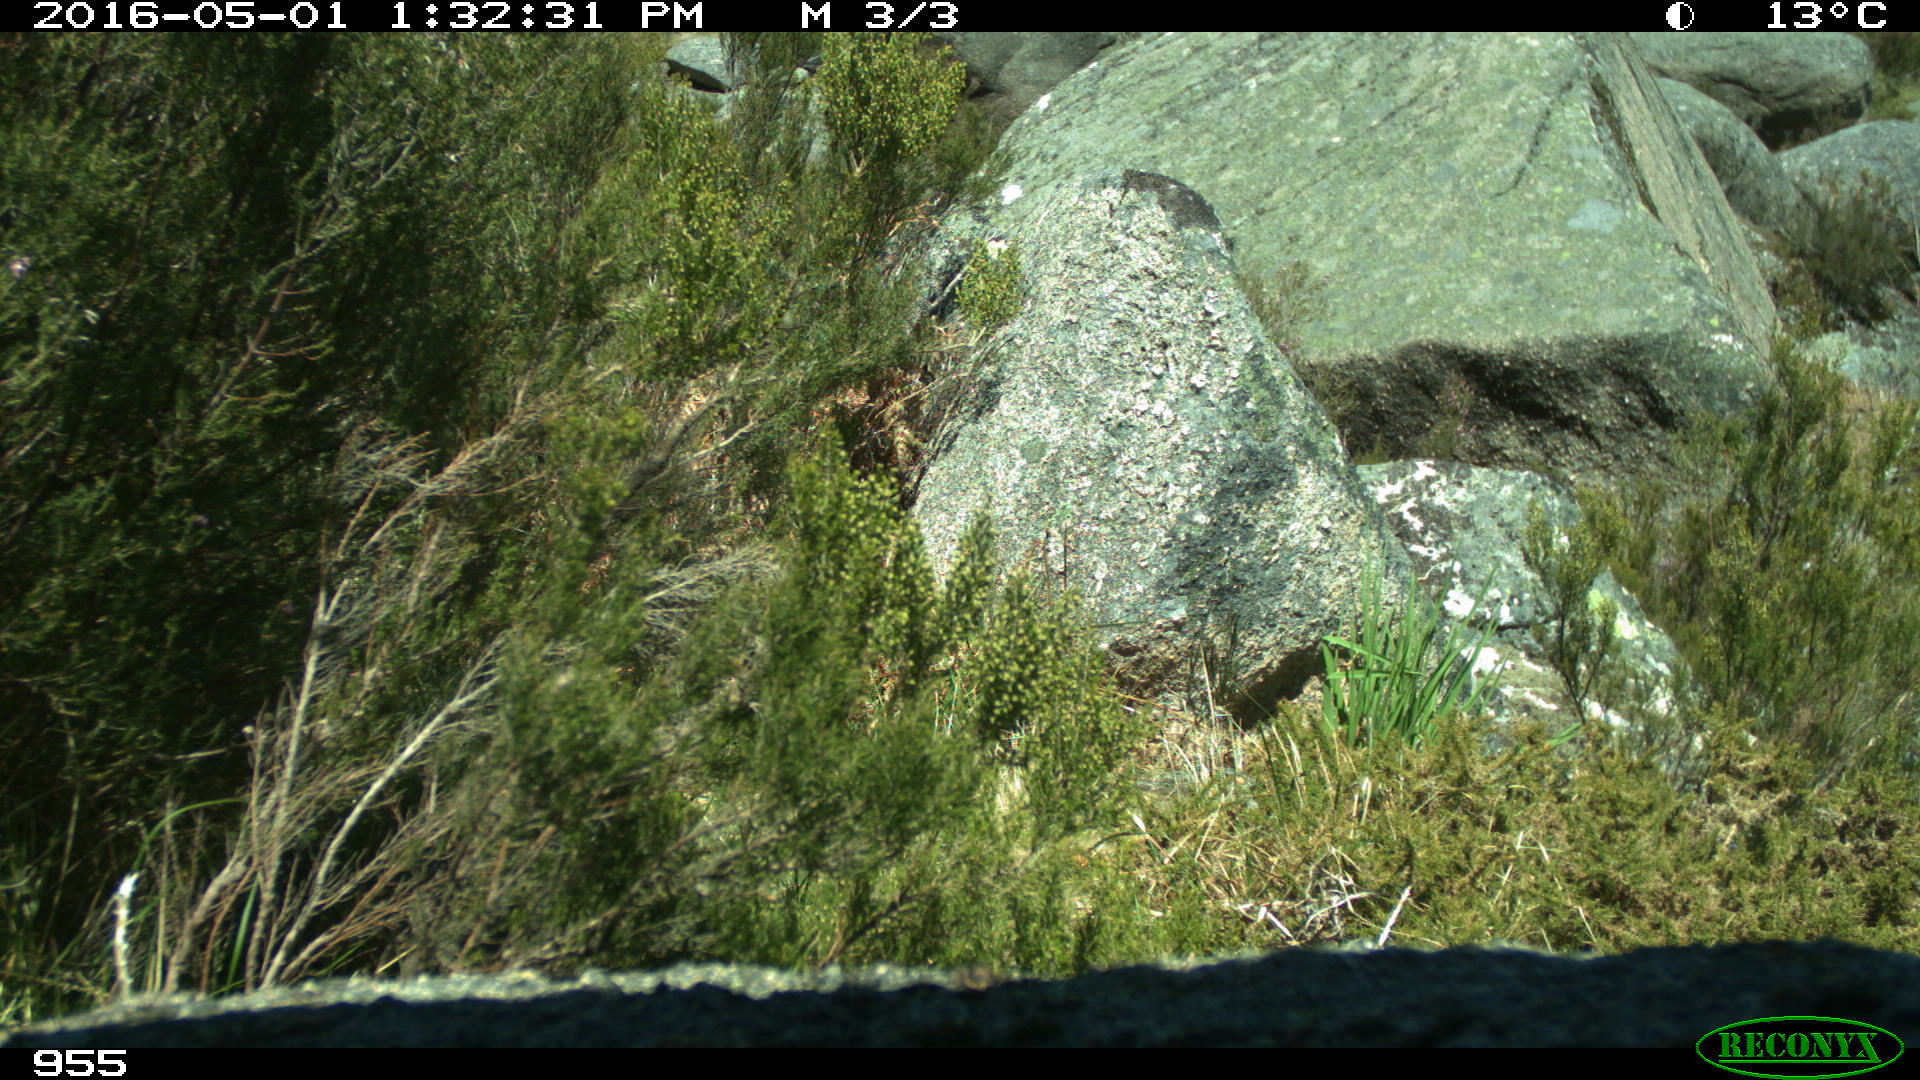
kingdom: Animalia
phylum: Chordata
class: Aves
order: Passeriformes
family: Prunellidae
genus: Prunella
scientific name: Prunella modularis
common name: Dunnock
